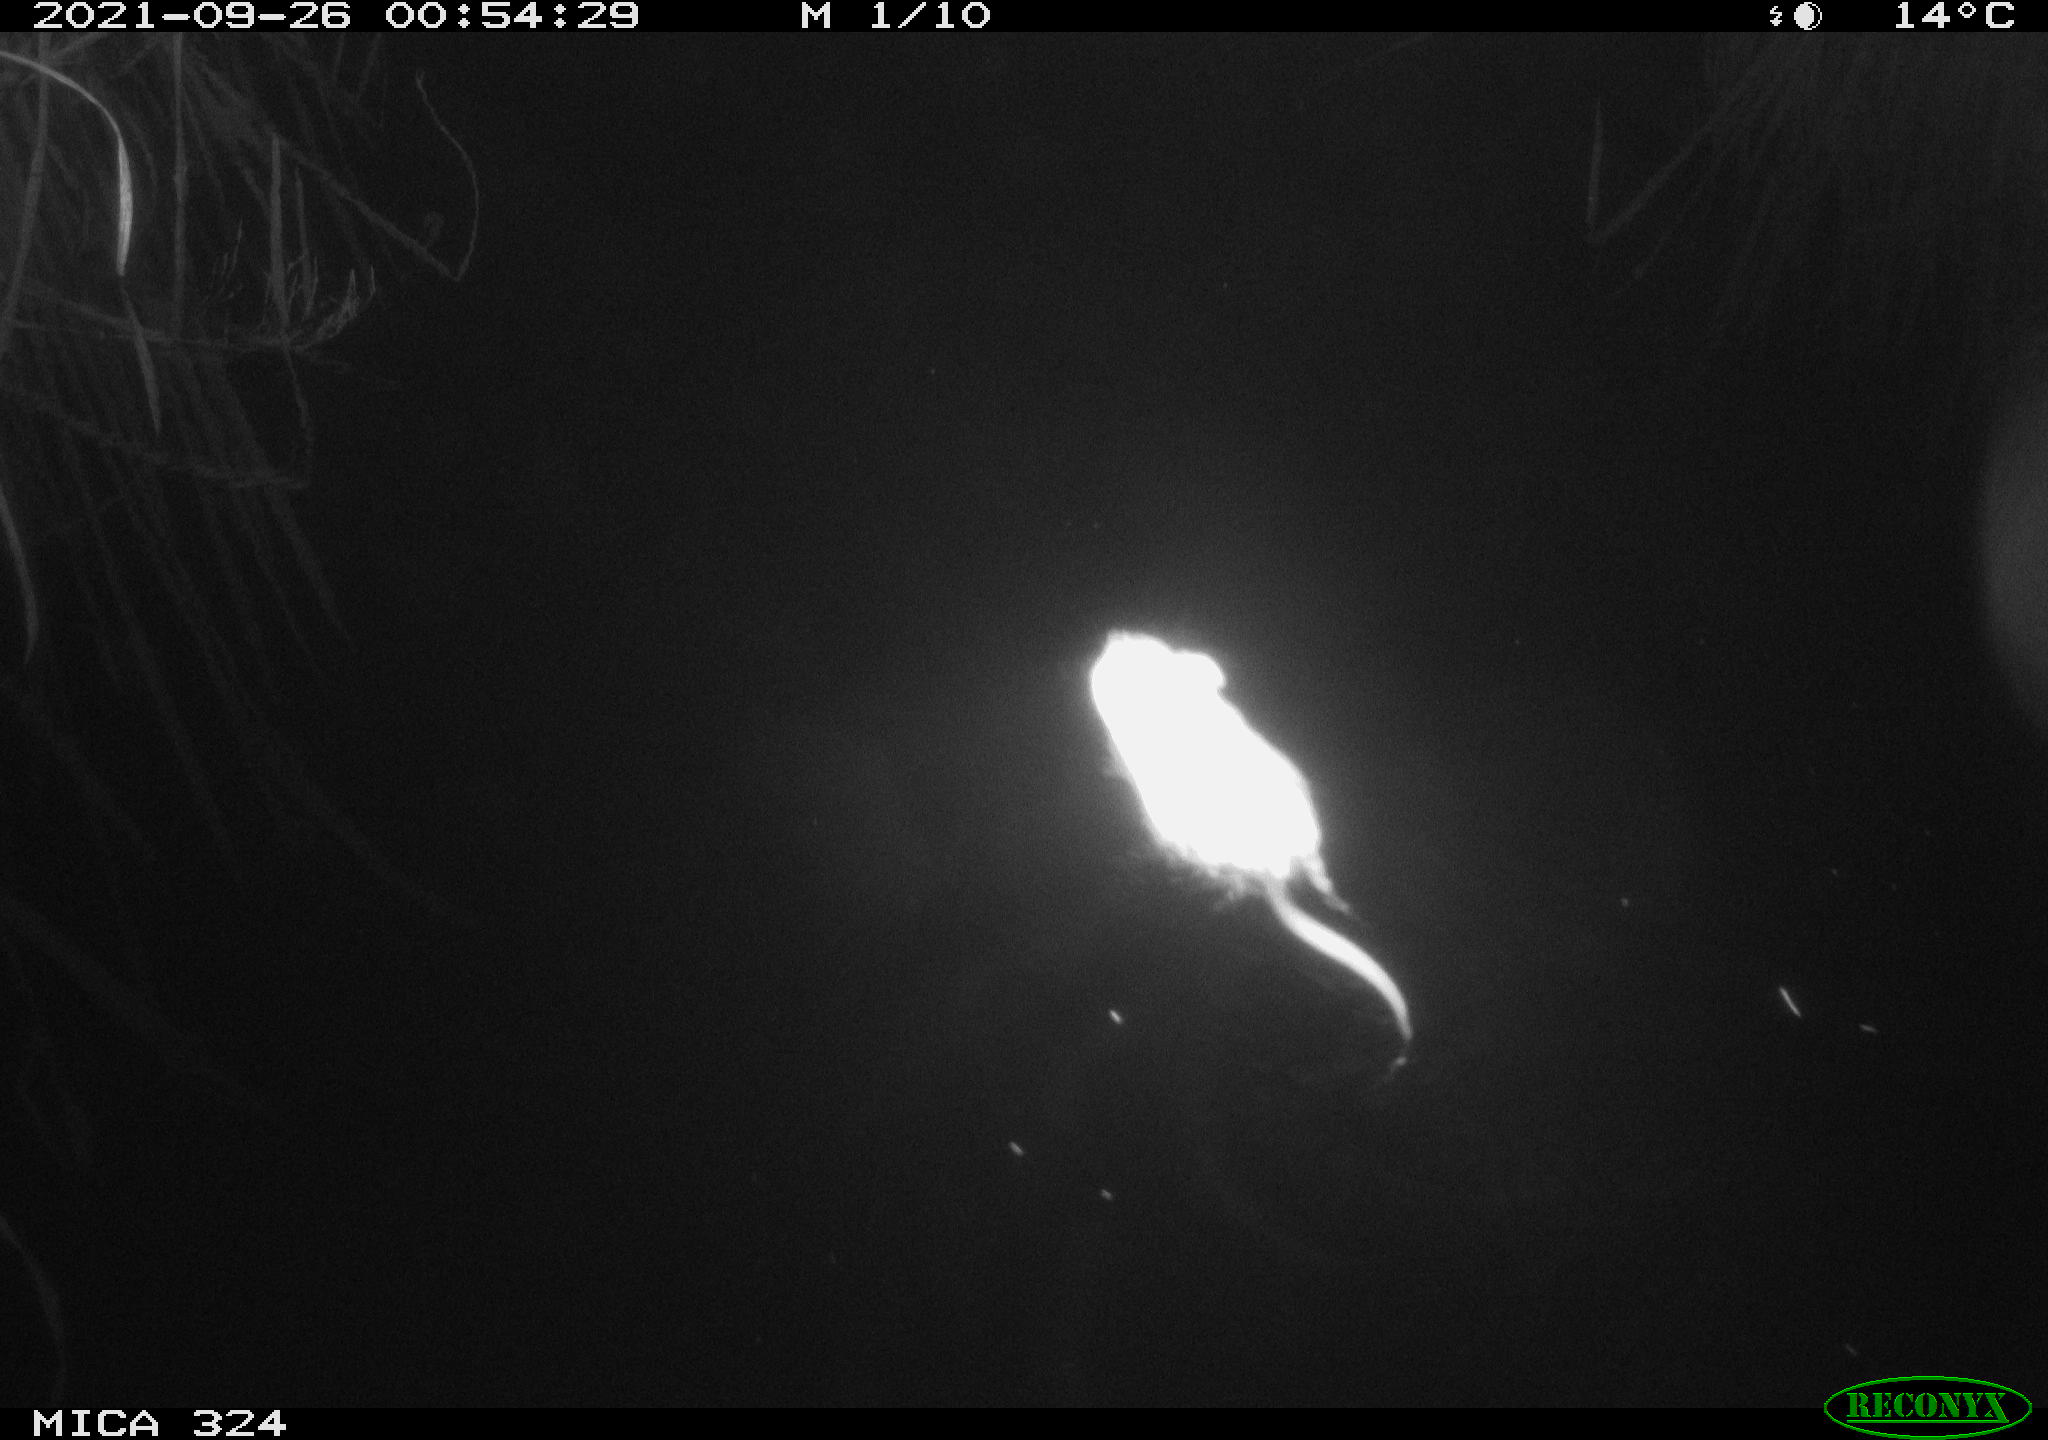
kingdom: Animalia
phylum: Chordata
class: Mammalia
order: Rodentia
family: Cricetidae
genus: Ondatra
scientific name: Ondatra zibethicus
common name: Muskrat
